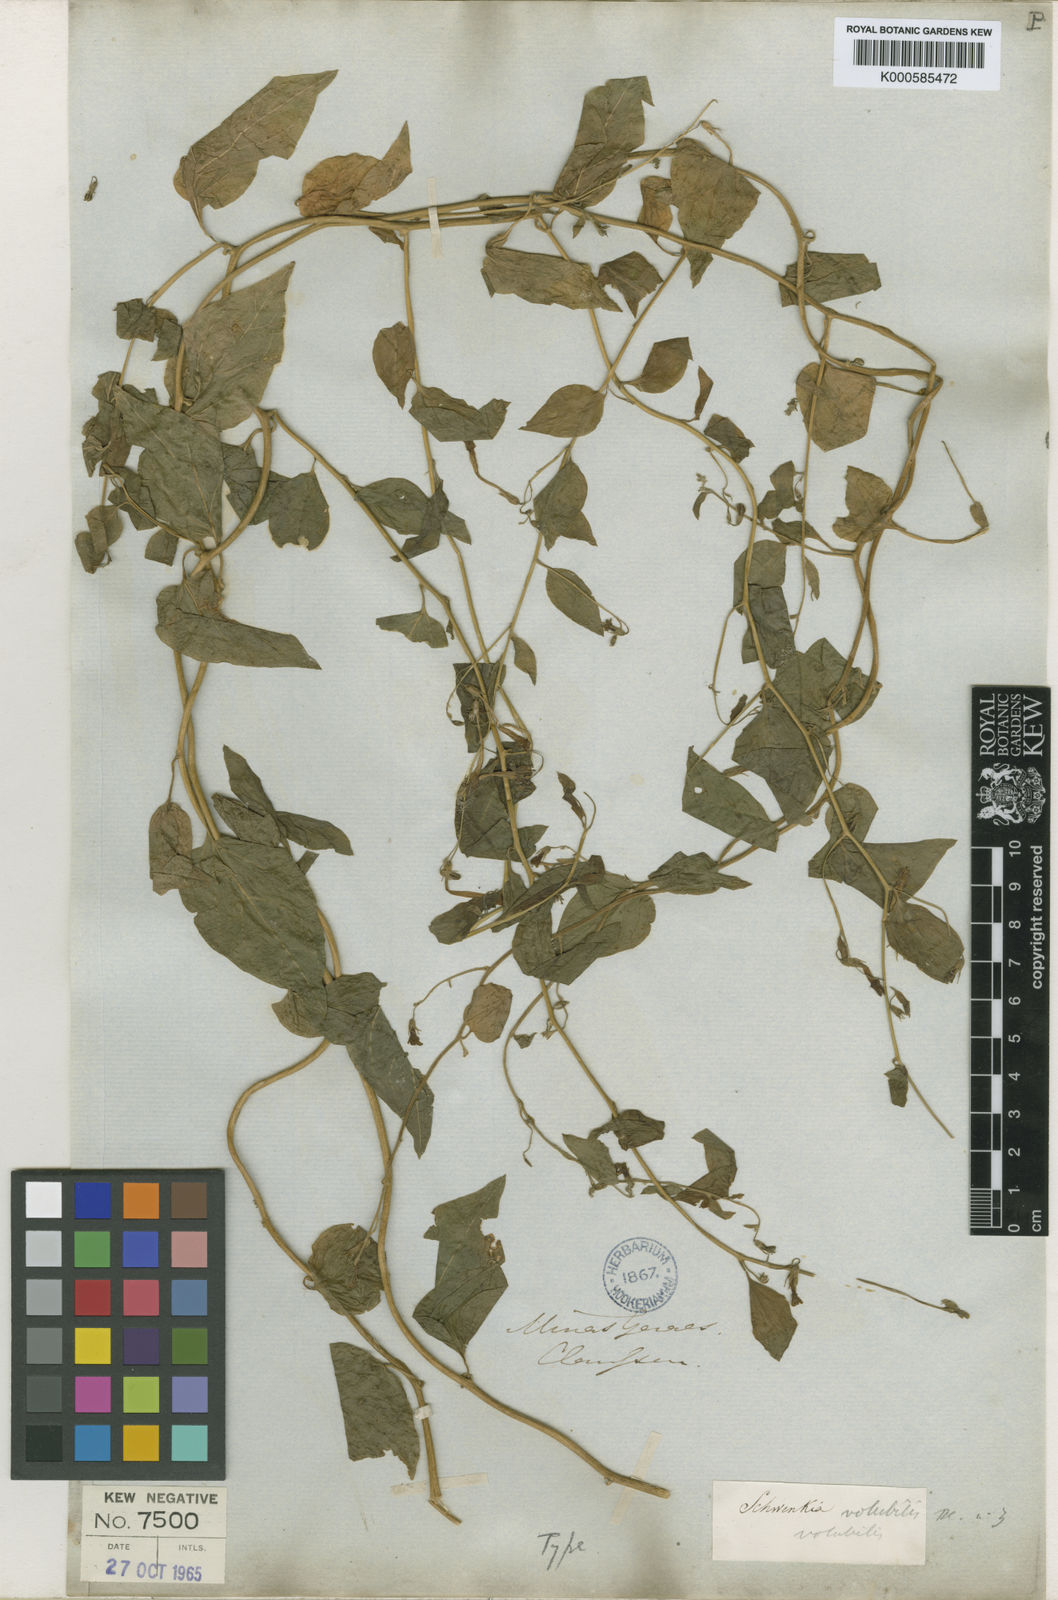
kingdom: Plantae
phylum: Tracheophyta
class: Magnoliopsida
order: Solanales
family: Solanaceae
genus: Schwenckia
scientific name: Schwenckia volubilis
